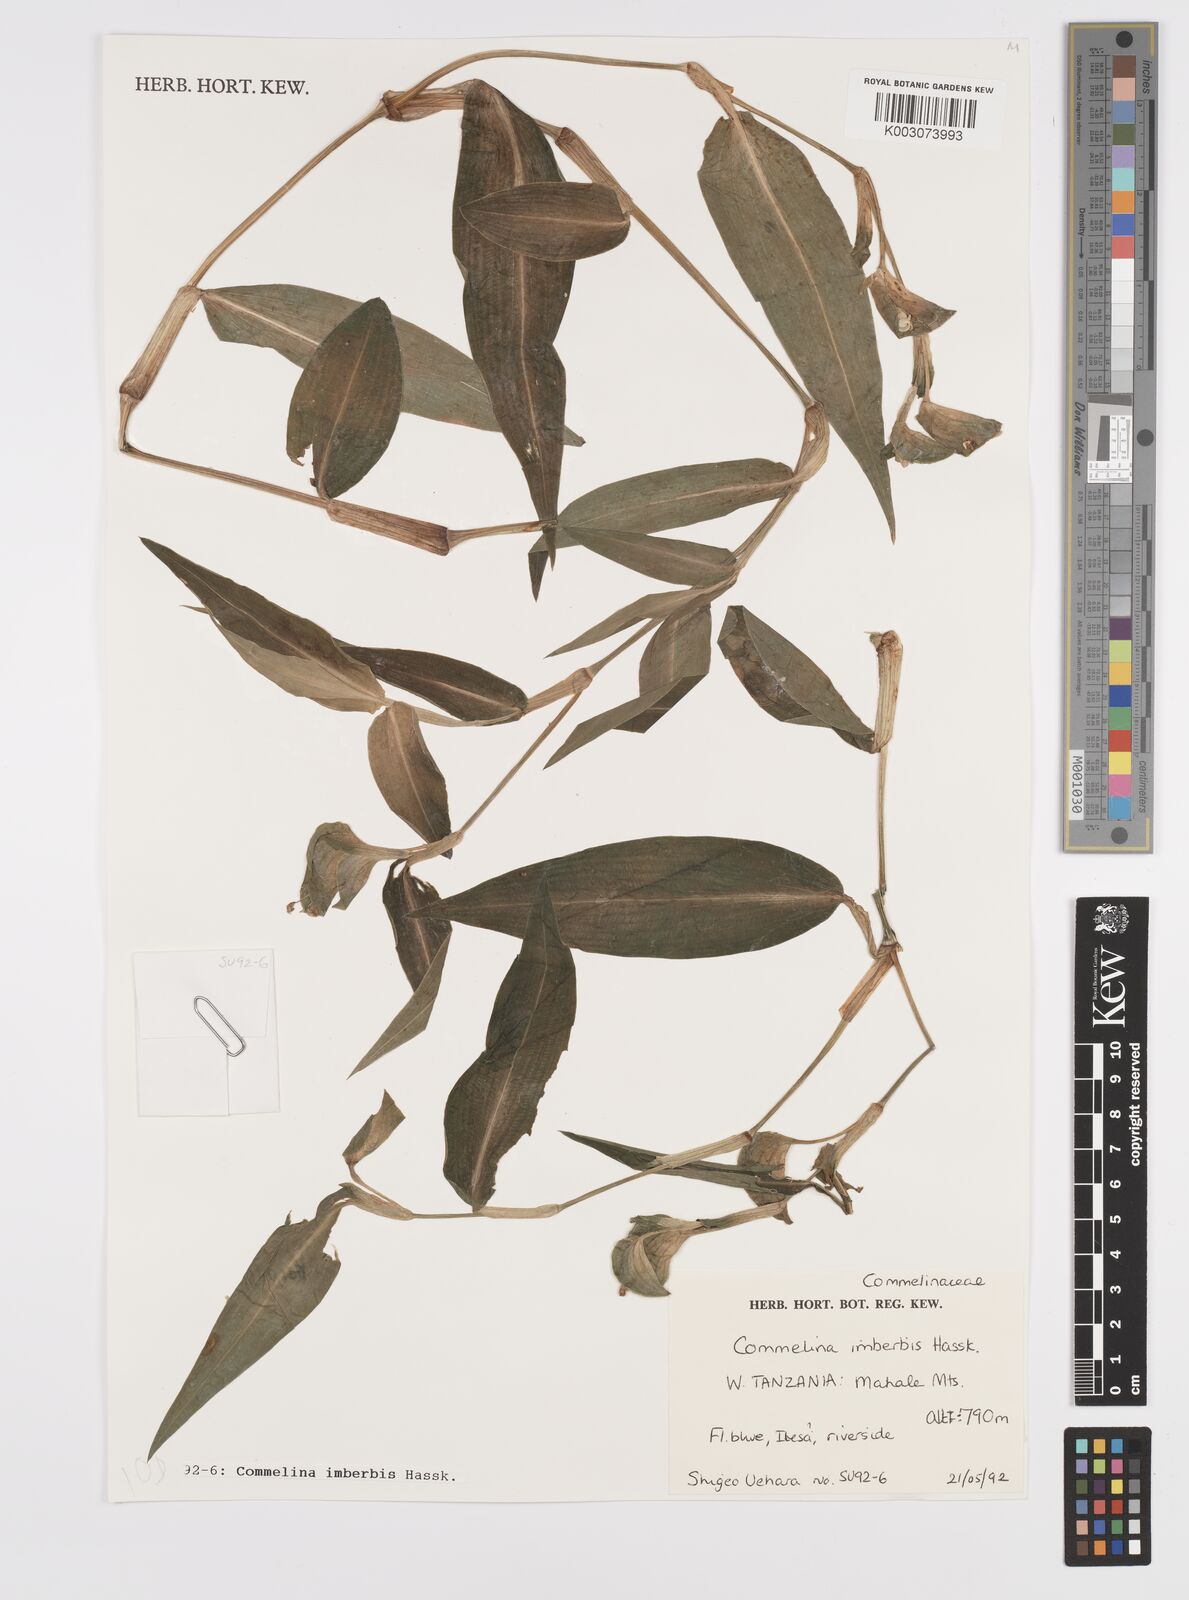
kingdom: Plantae
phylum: Tracheophyta
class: Liliopsida
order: Commelinales
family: Commelinaceae
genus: Commelina
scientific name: Commelina imberbis
